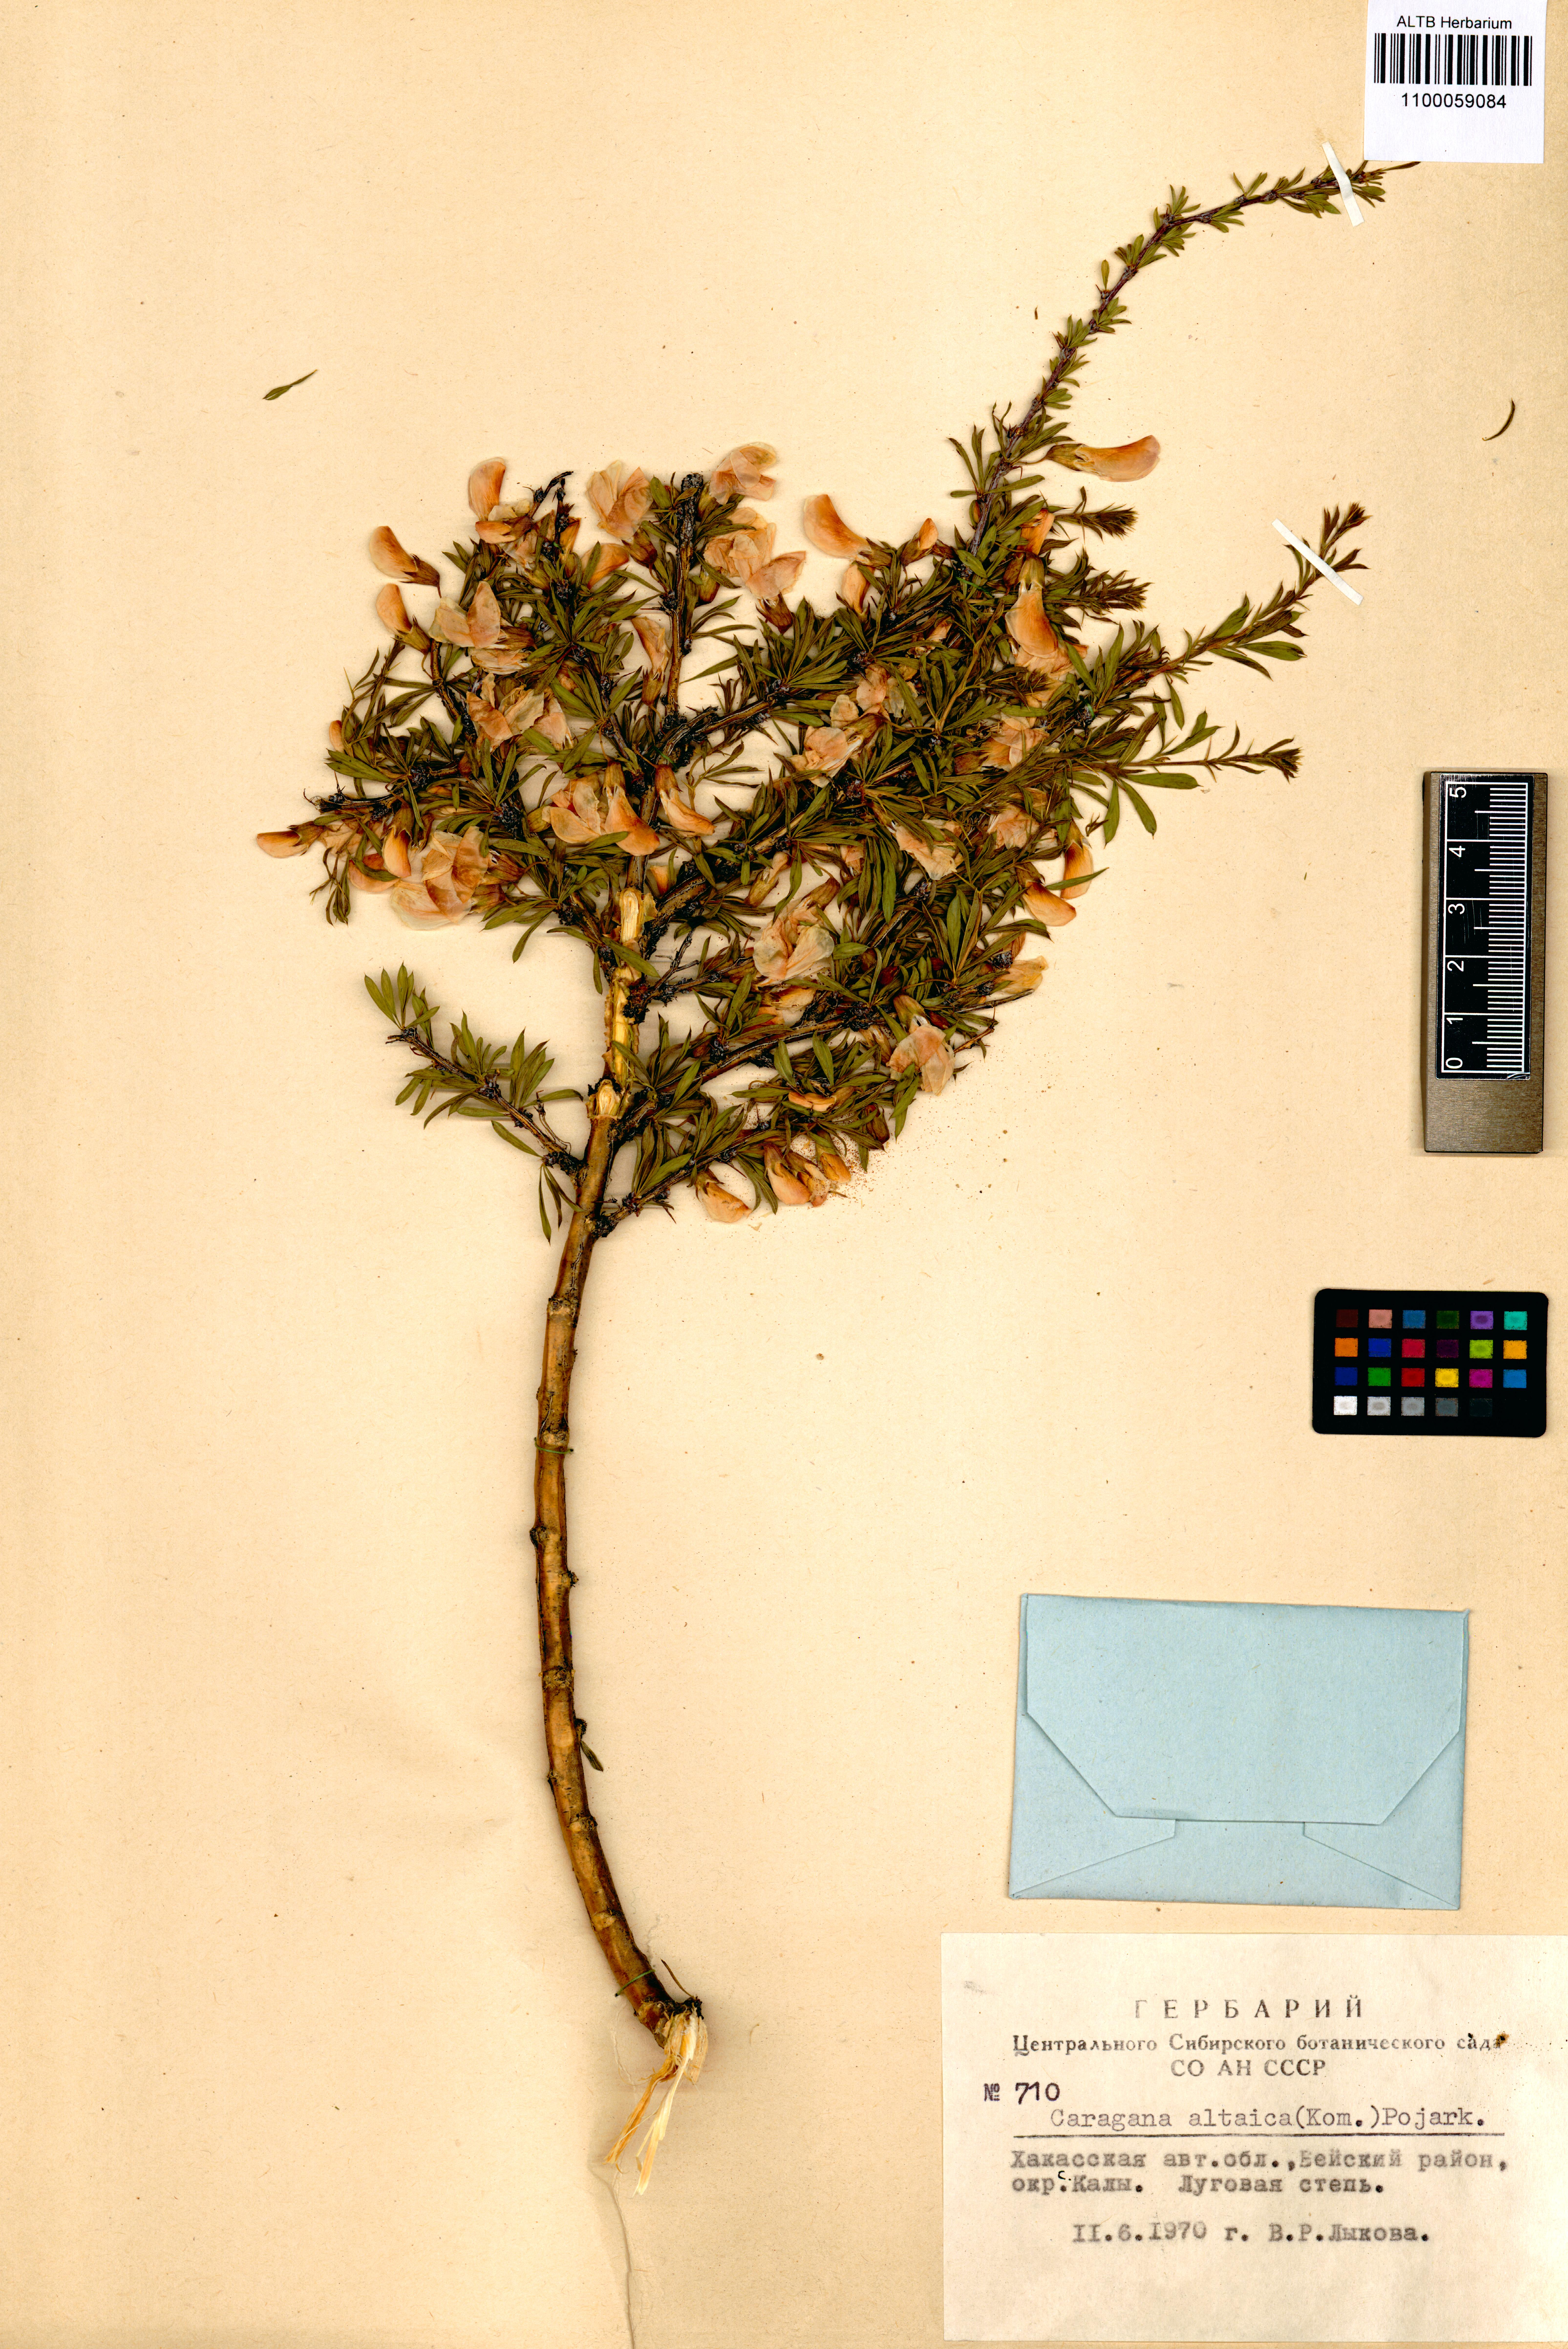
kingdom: Plantae
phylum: Tracheophyta
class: Magnoliopsida
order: Fabales
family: Fabaceae
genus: Caragana
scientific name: Caragana pygmaea
